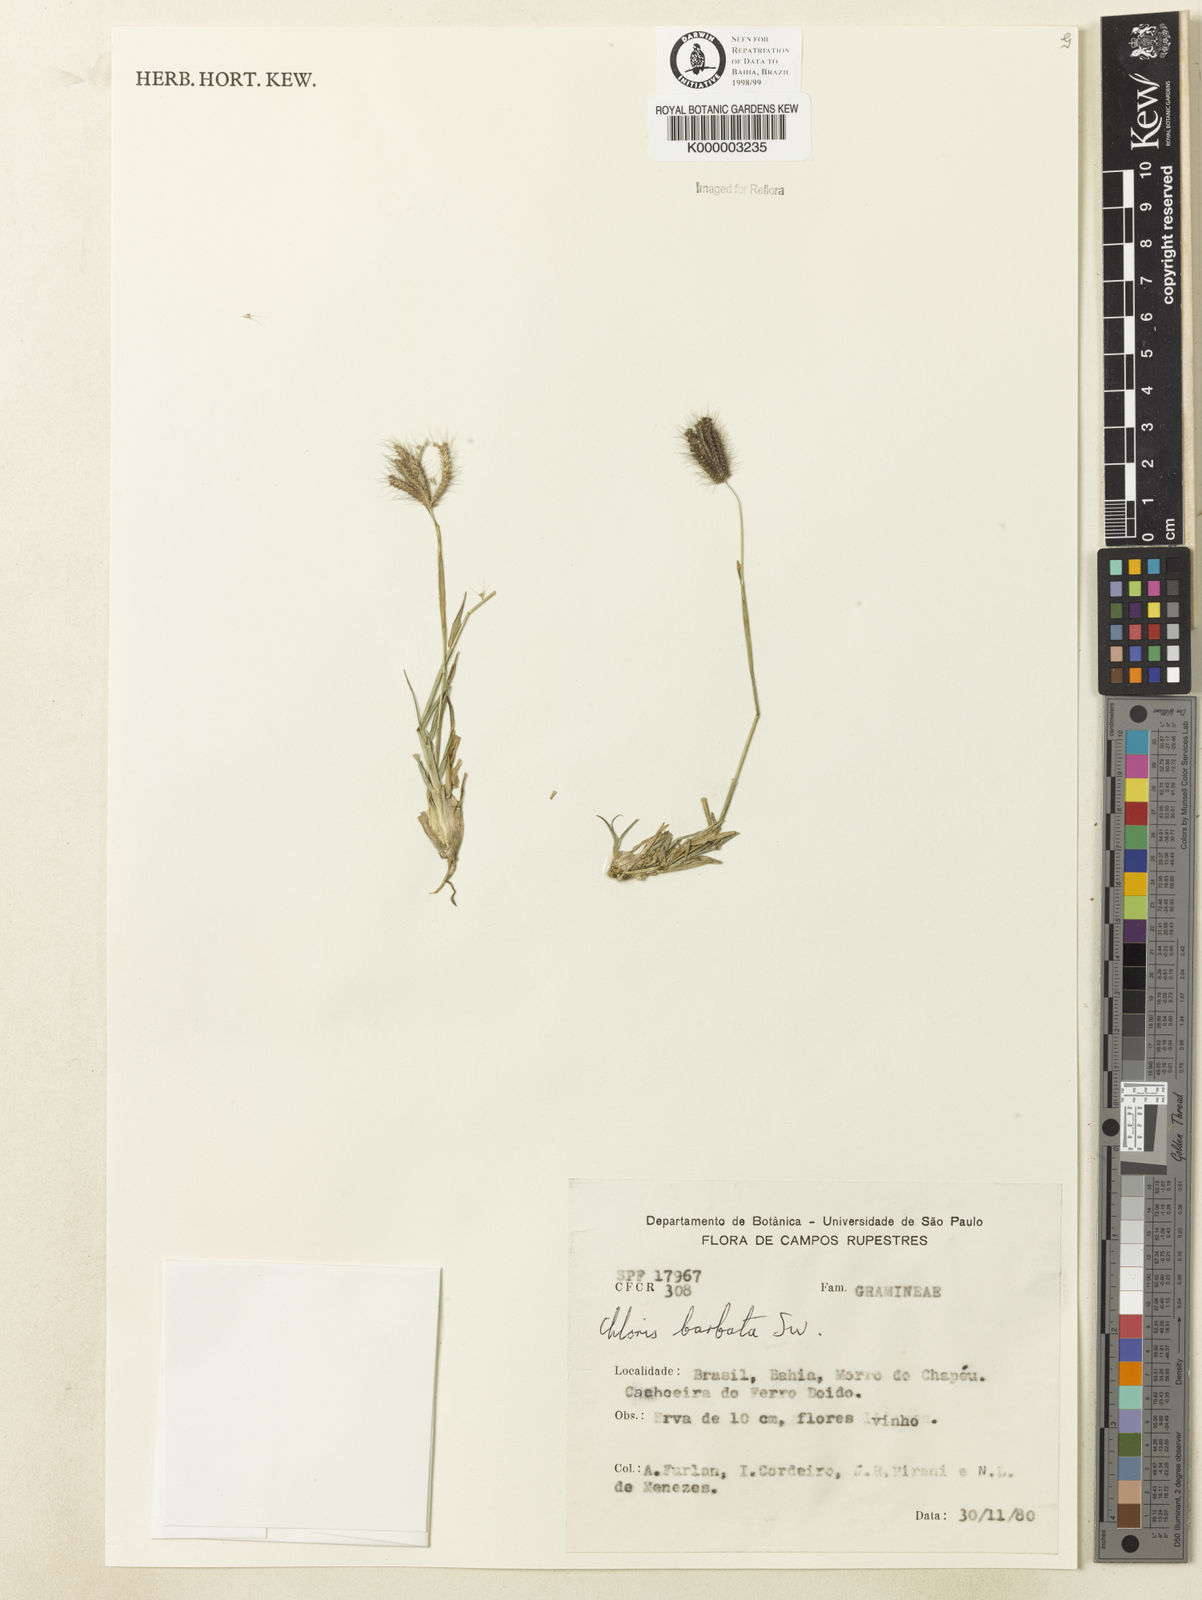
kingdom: Plantae
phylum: Tracheophyta
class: Liliopsida
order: Poales
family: Poaceae
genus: Chloris
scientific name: Chloris
